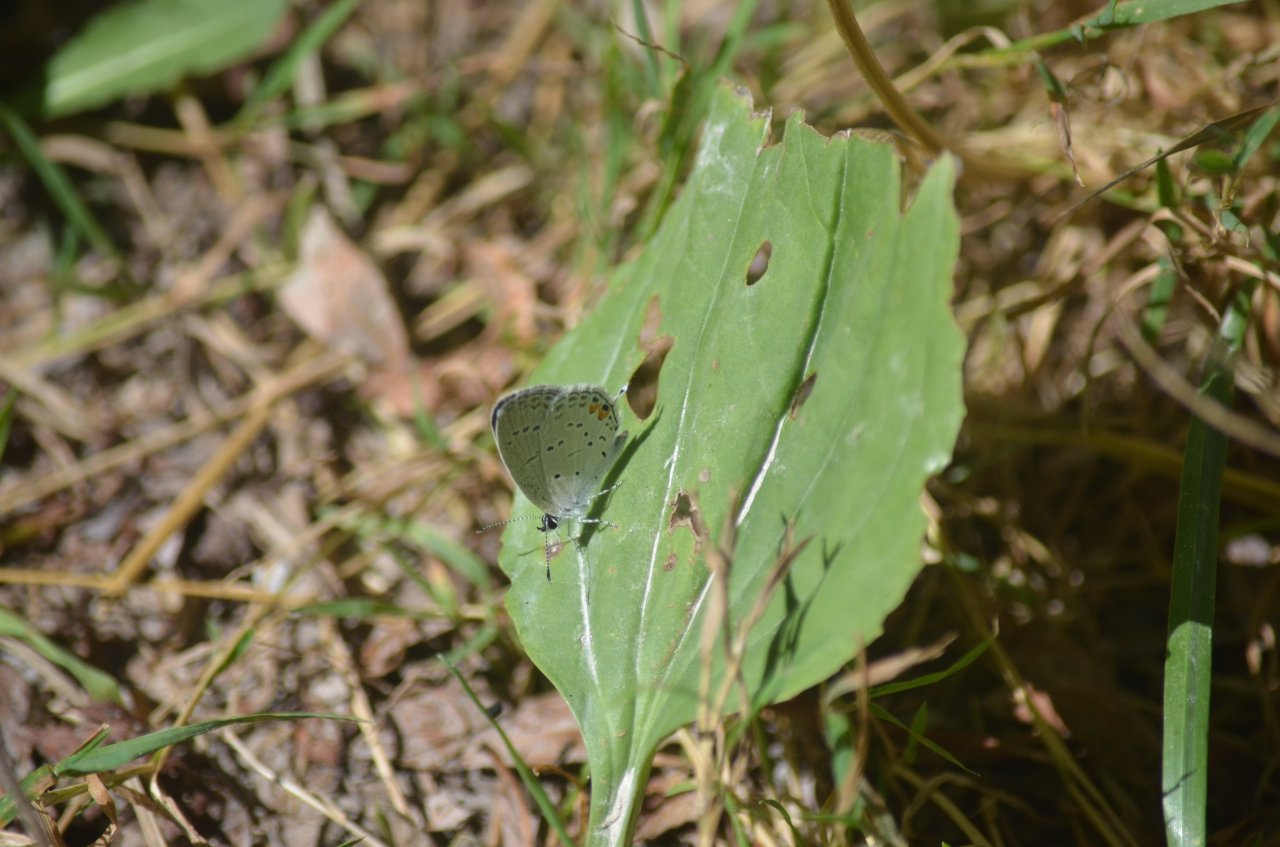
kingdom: Animalia
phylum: Arthropoda
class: Insecta
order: Lepidoptera
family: Lycaenidae
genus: Elkalyce
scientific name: Elkalyce comyntas
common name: Eastern Tailed-Blue
